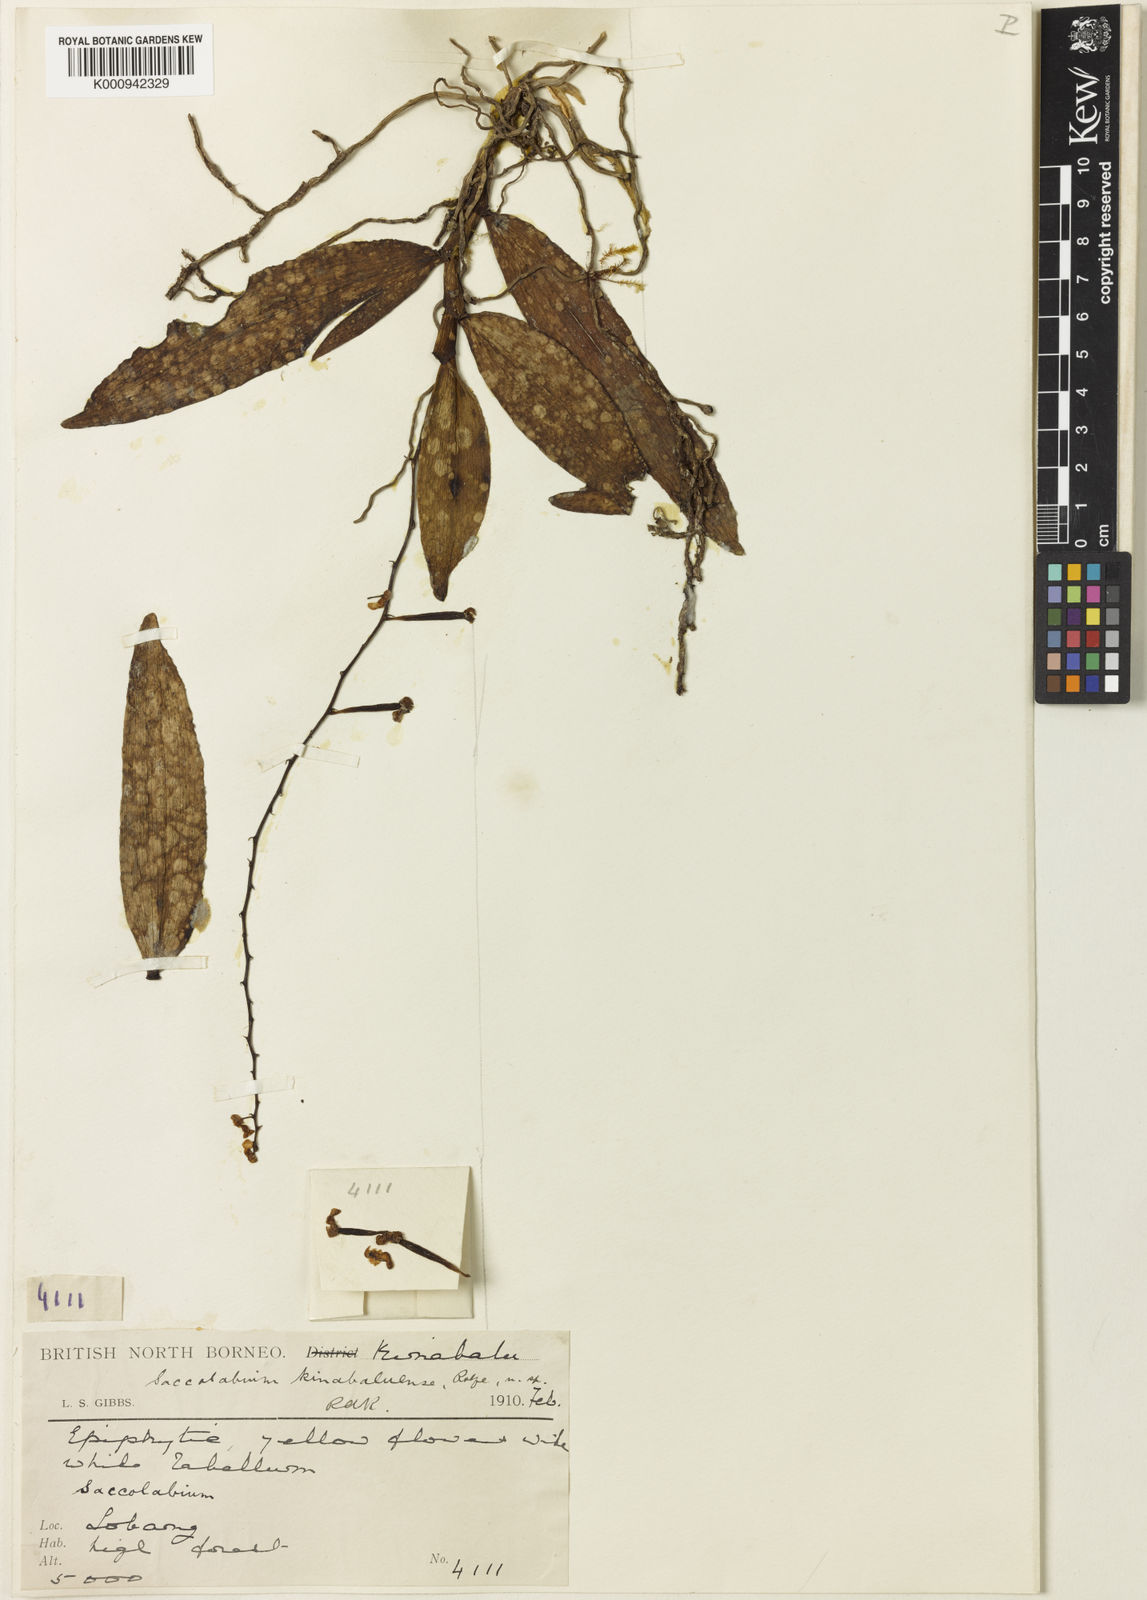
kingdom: Plantae
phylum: Tracheophyta
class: Liliopsida
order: Asparagales
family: Orchidaceae
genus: Robiquetia
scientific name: Robiquetia witteana
